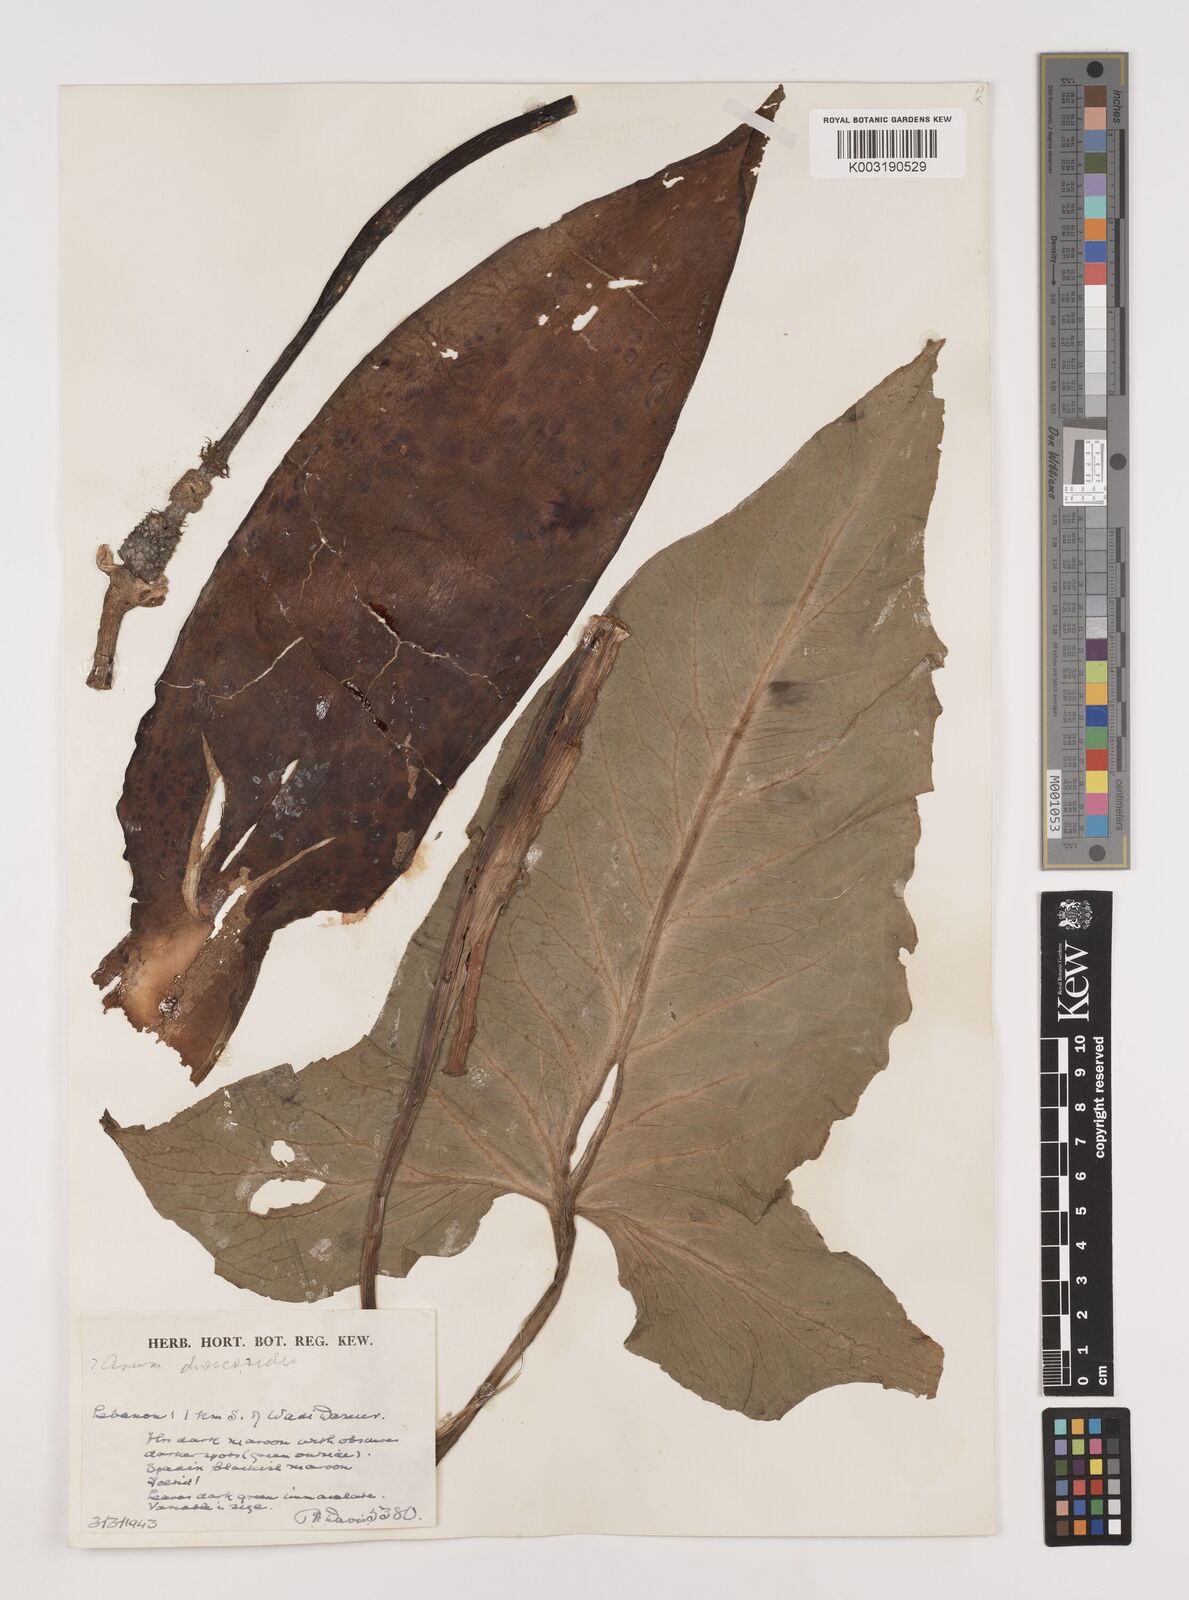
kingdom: Plantae
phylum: Tracheophyta
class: Liliopsida
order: Alismatales
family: Araceae
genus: Arum
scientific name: Arum dioscoridis
